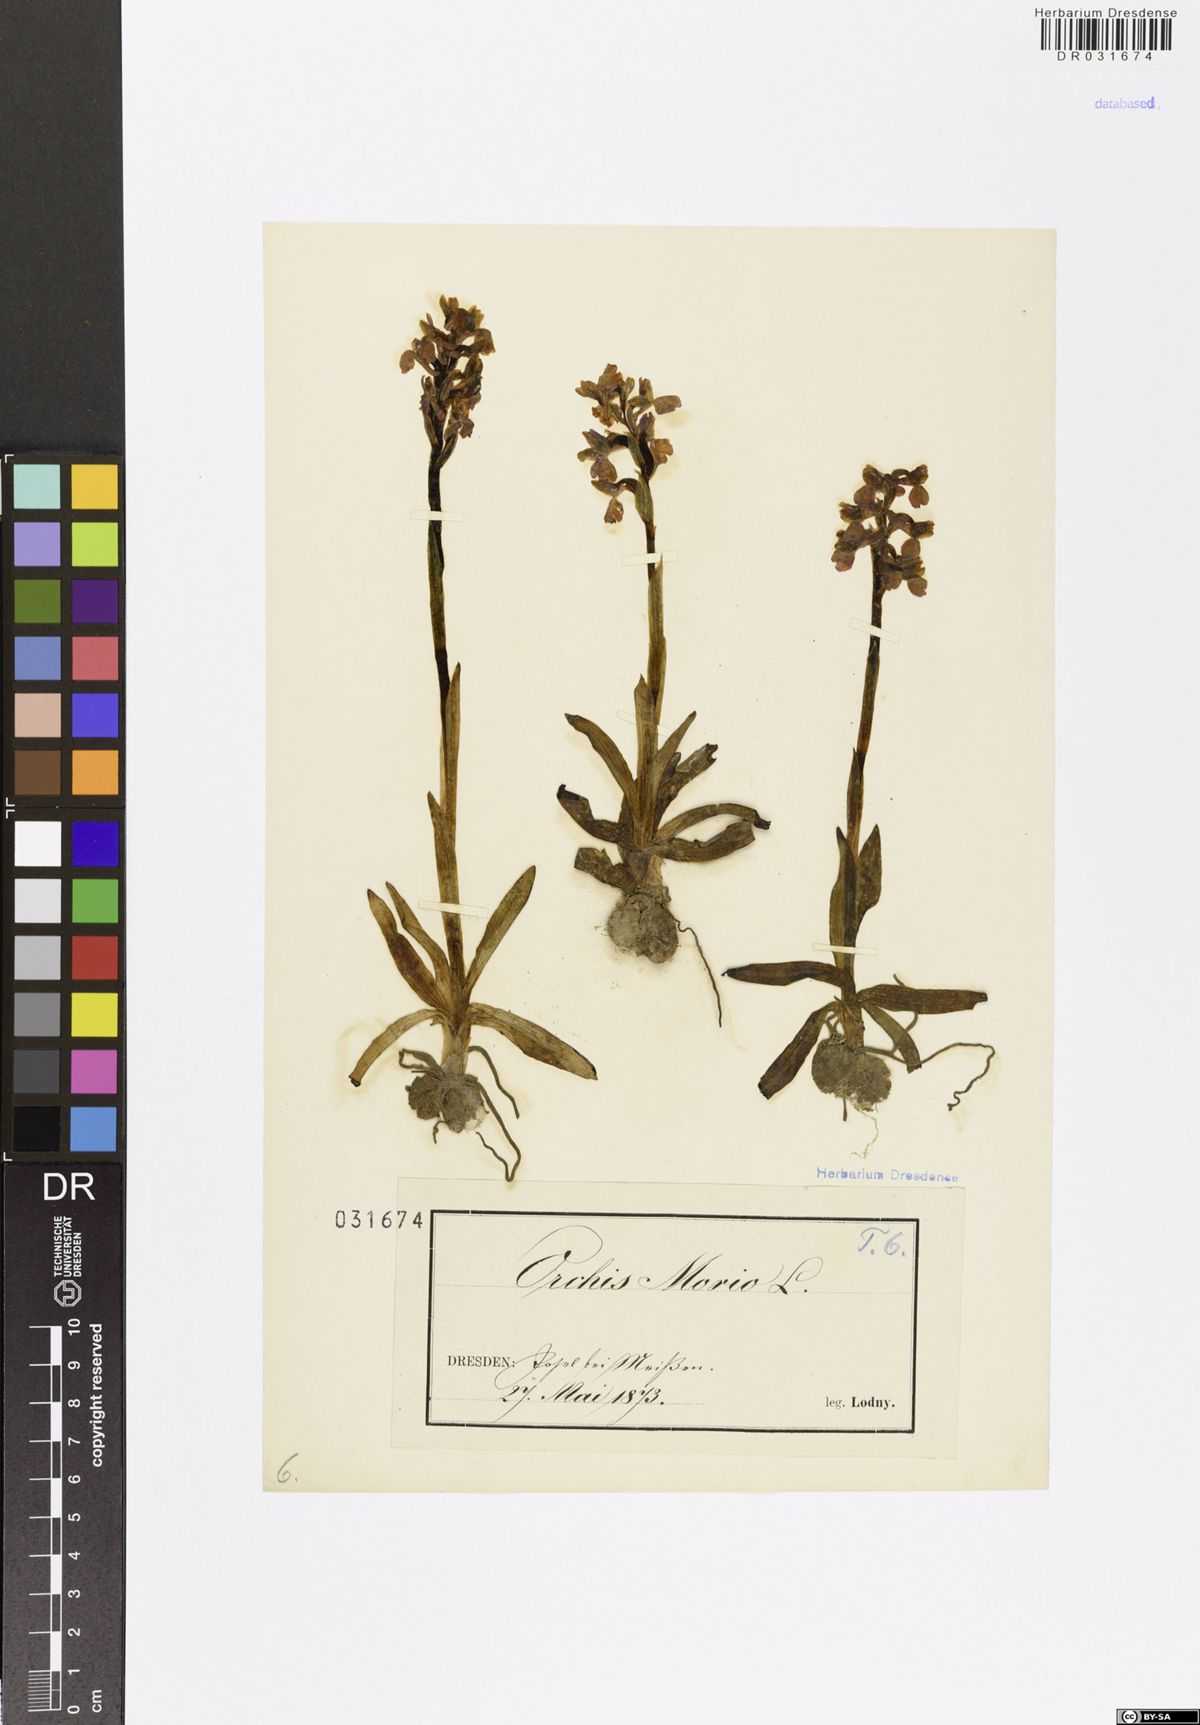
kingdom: Plantae
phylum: Tracheophyta
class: Liliopsida
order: Asparagales
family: Orchidaceae
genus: Anacamptis
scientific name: Anacamptis morio
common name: Green-winged orchid
